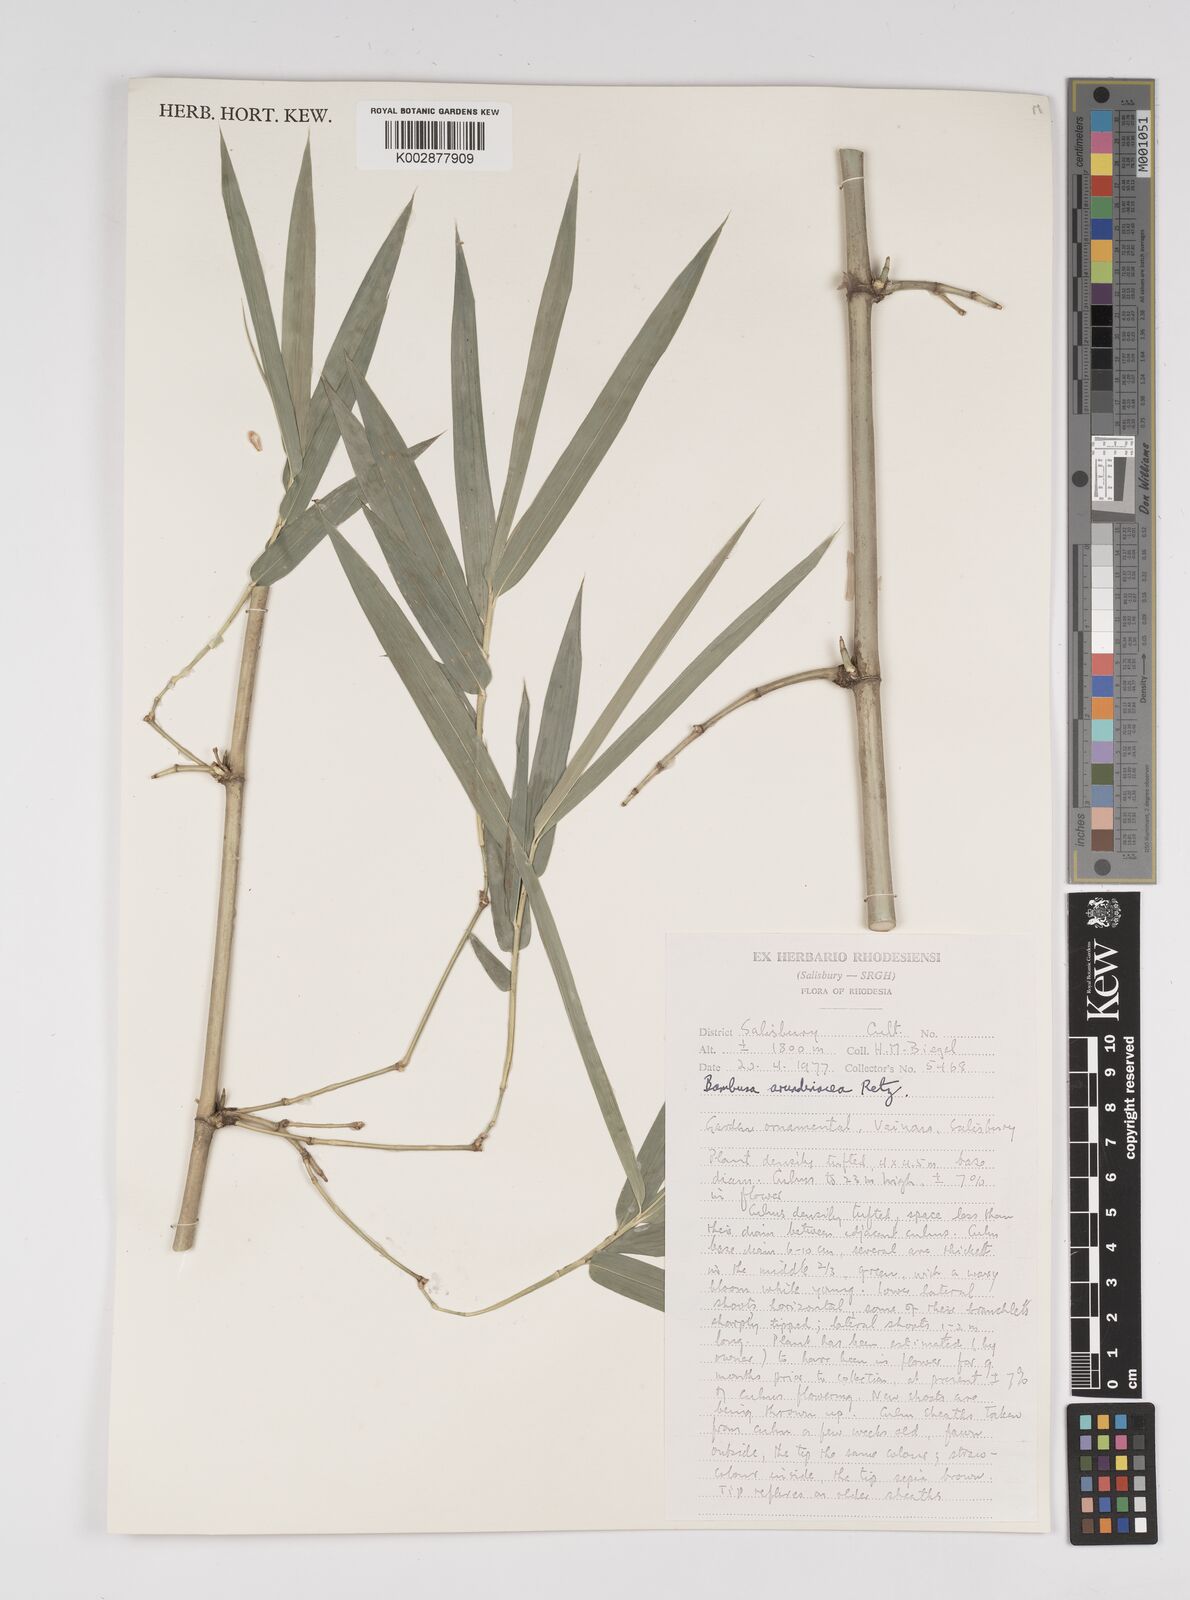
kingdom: Plantae
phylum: Tracheophyta
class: Liliopsida
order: Poales
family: Poaceae
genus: Bambusa
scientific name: Bambusa bambos
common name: Indian thorny bamboo
